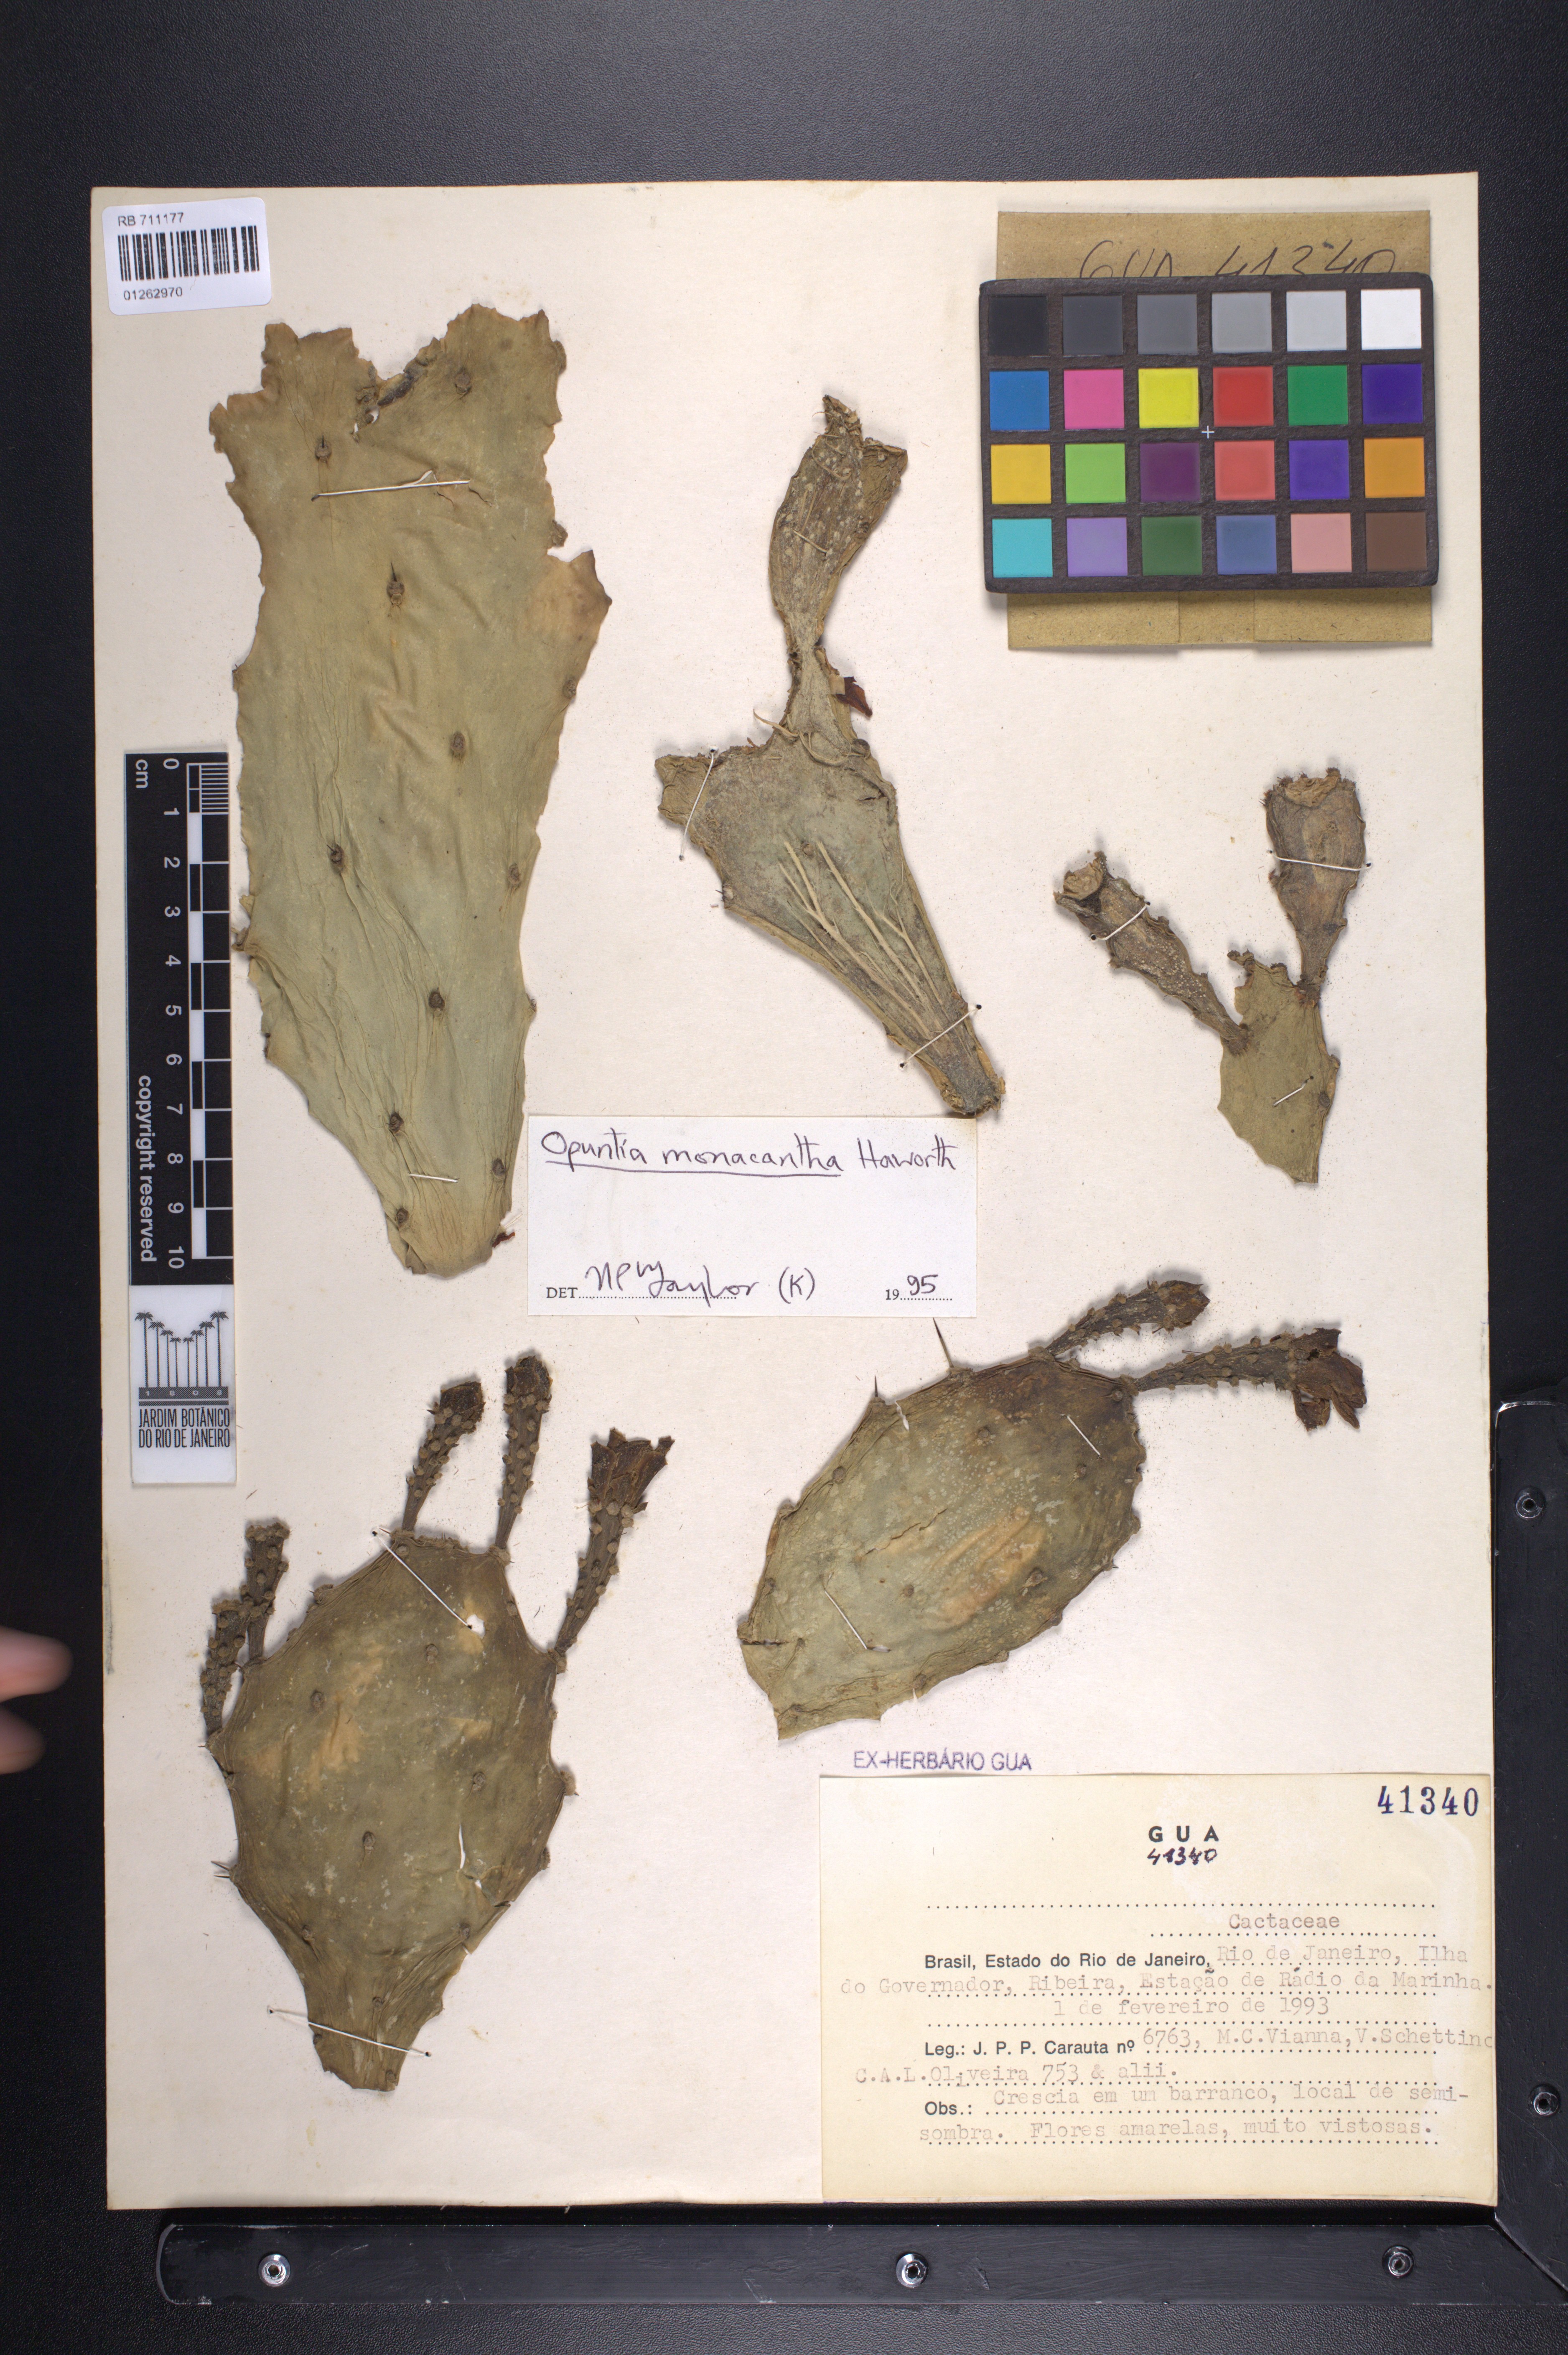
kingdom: Plantae
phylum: Tracheophyta
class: Magnoliopsida
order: Caryophyllales
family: Cactaceae
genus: Opuntia
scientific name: Opuntia monacantha
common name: Common pricklypear
